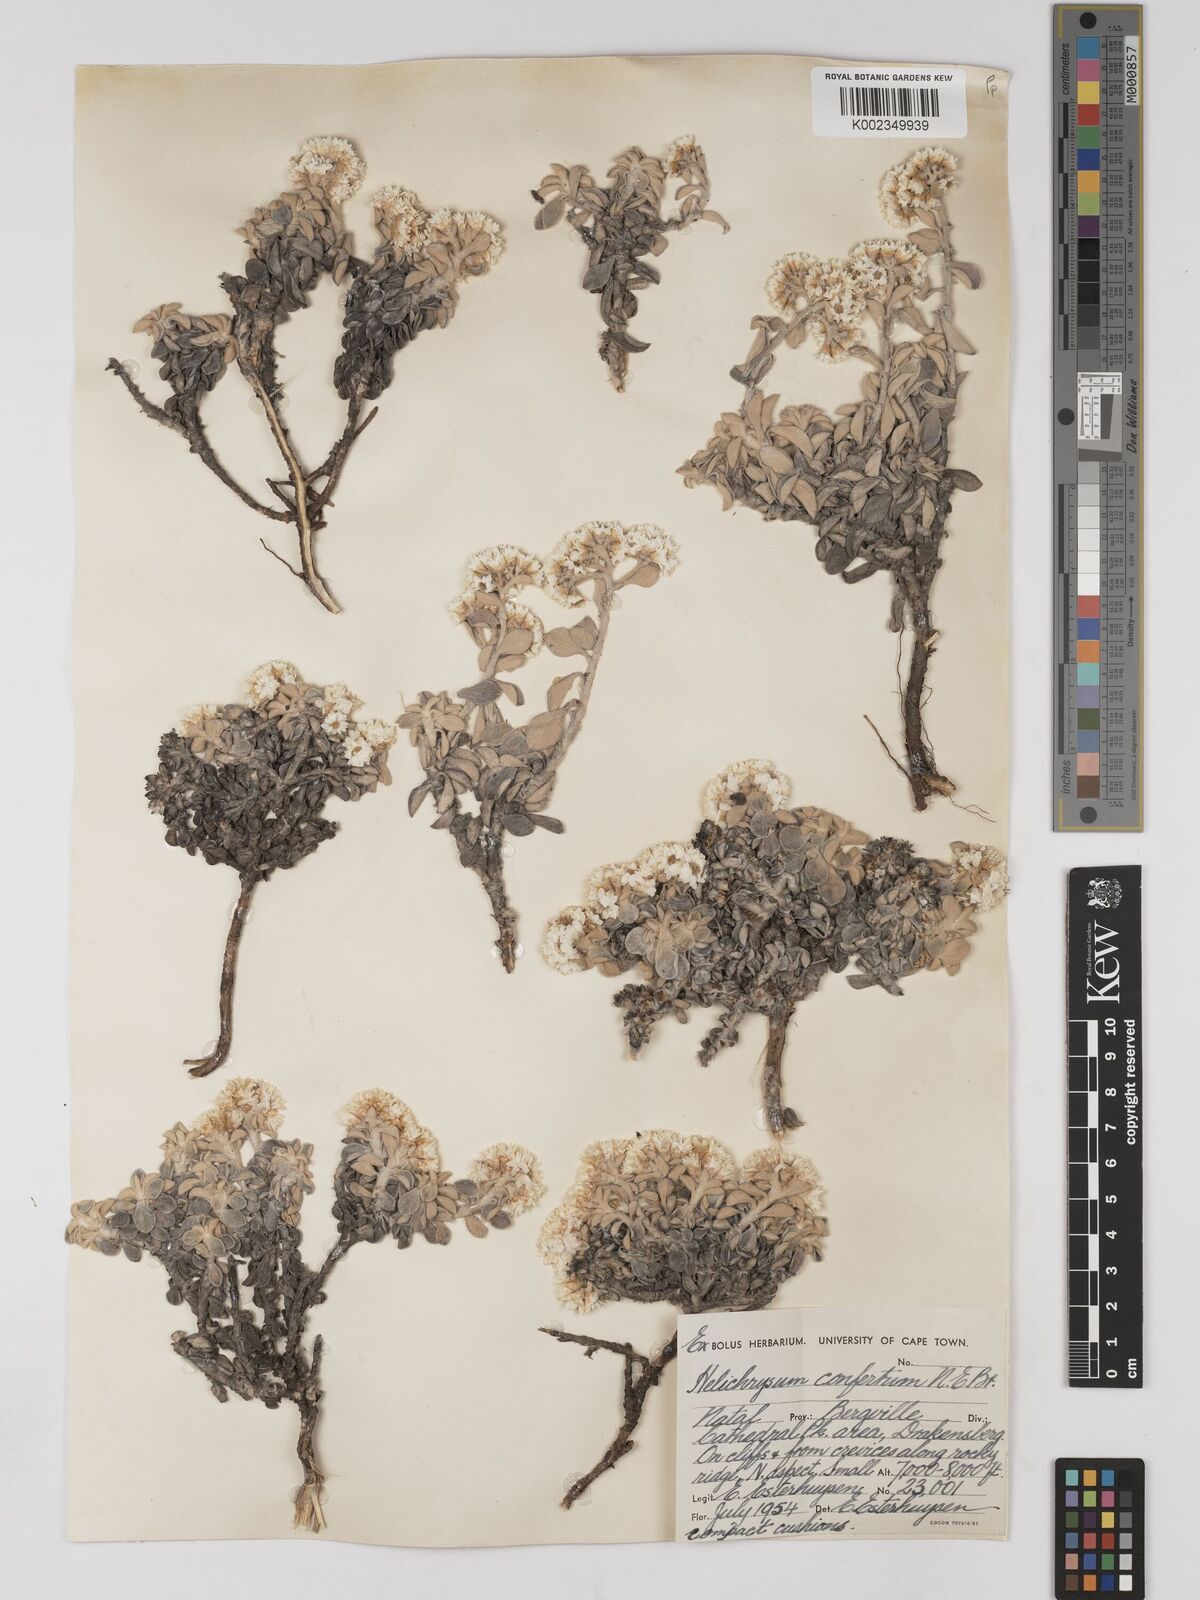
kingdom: Plantae
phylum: Tracheophyta
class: Magnoliopsida
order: Asterales
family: Asteraceae
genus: Helichrysum
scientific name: Helichrysum confertum
